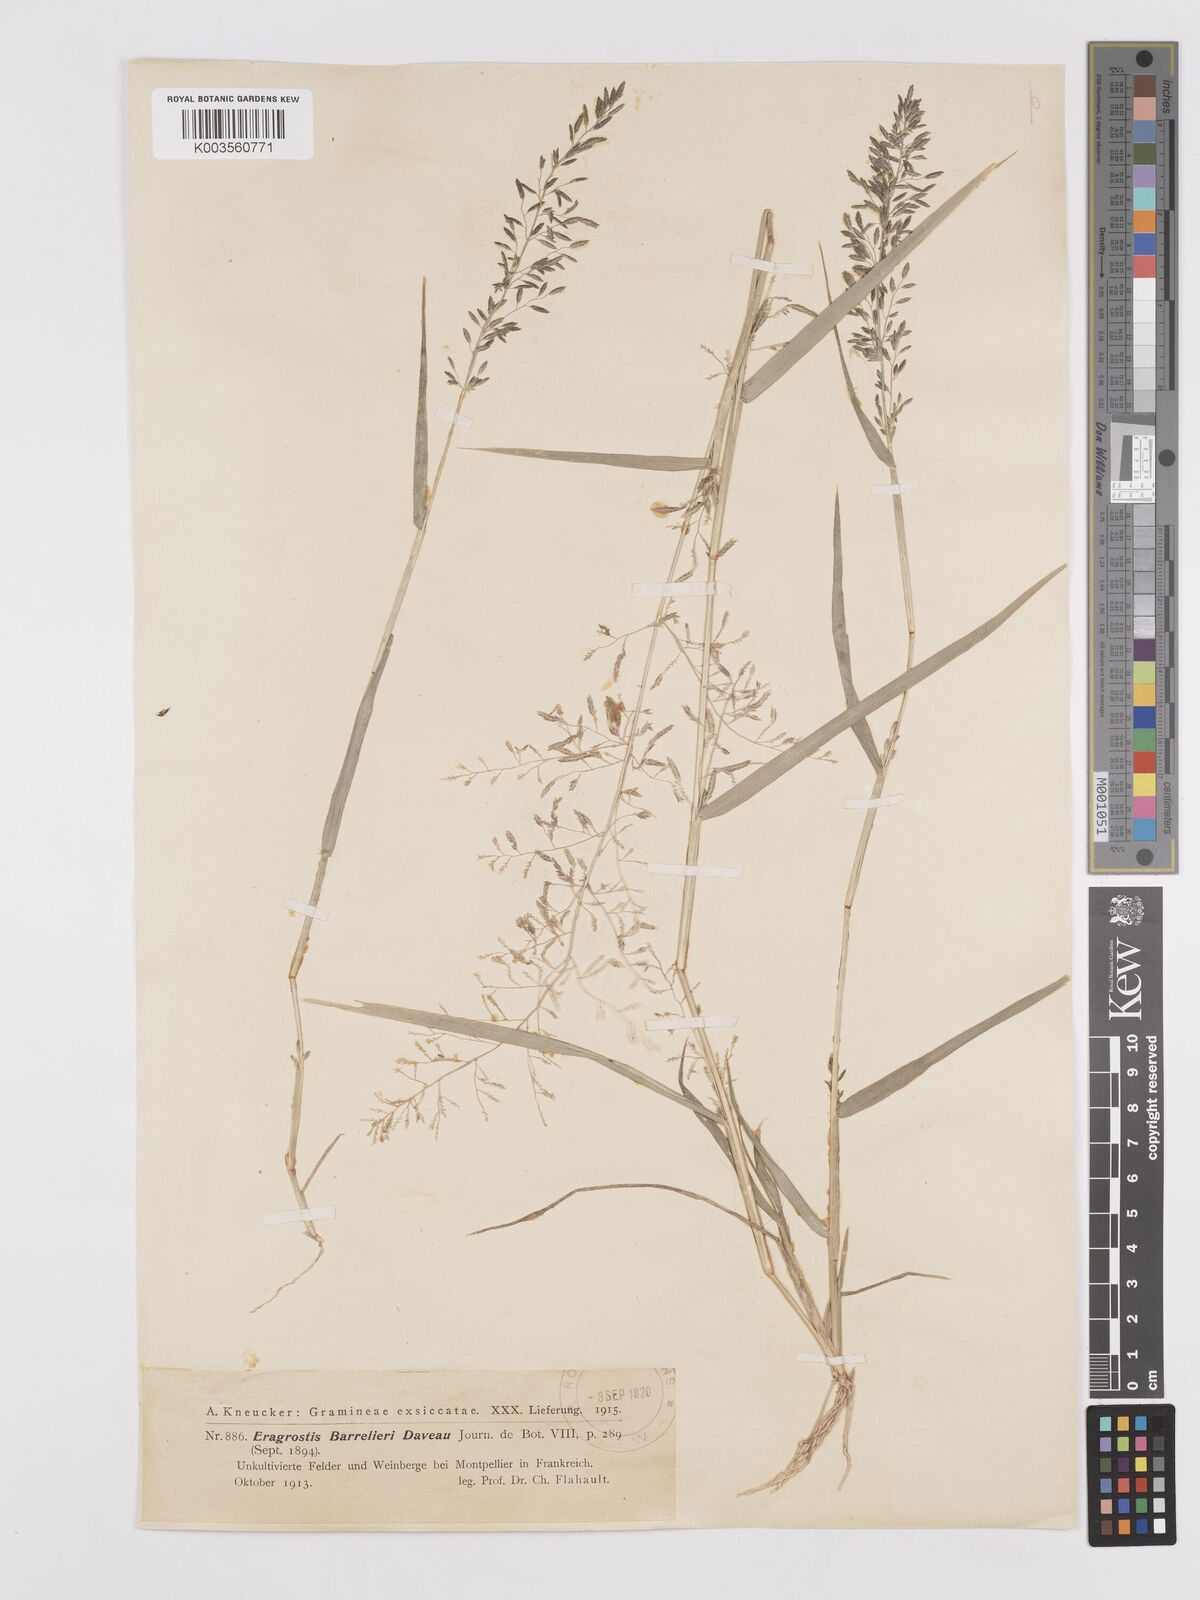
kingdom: Plantae
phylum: Tracheophyta
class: Liliopsida
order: Poales
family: Poaceae
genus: Eragrostis
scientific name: Eragrostis barrelieri
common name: Mediterranean lovegrass
